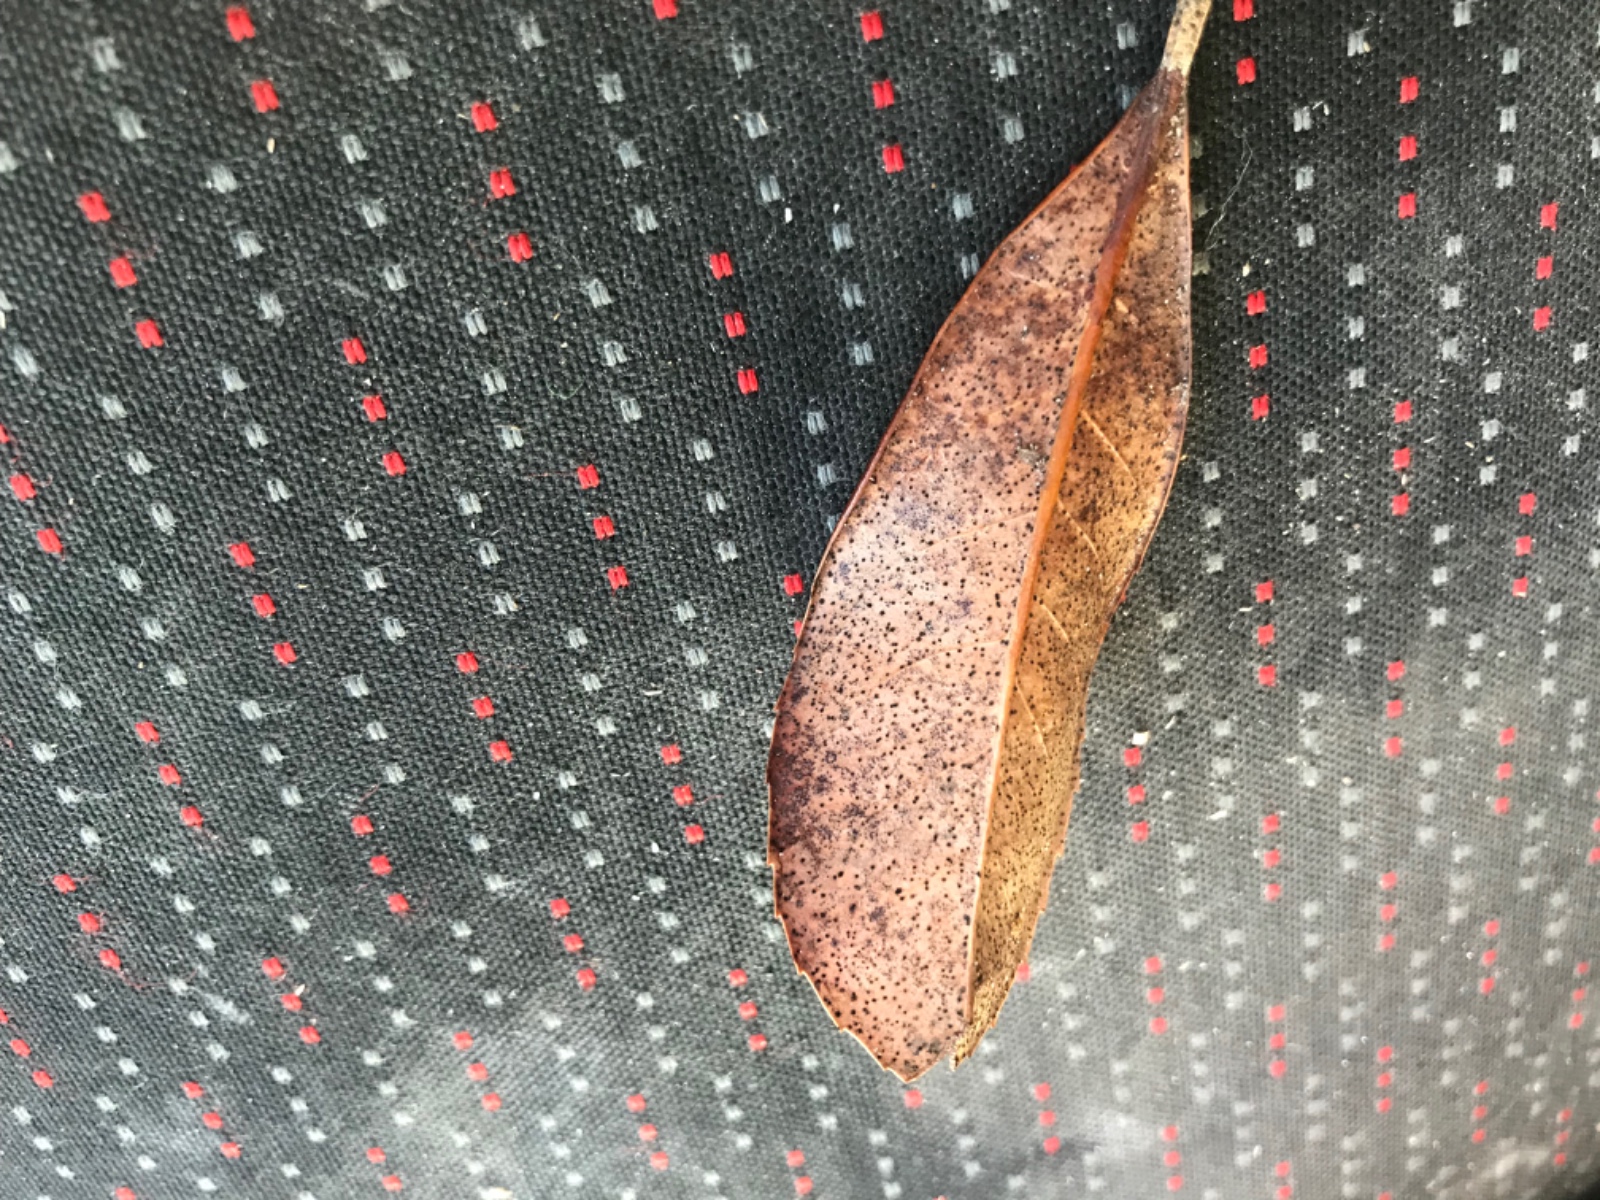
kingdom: Fungi
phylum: Ascomycota
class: Leotiomycetes
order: Helotiales
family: Cenangiaceae
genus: Trochila
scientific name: Trochila laurocerasi
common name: kirsebær-lågskive
